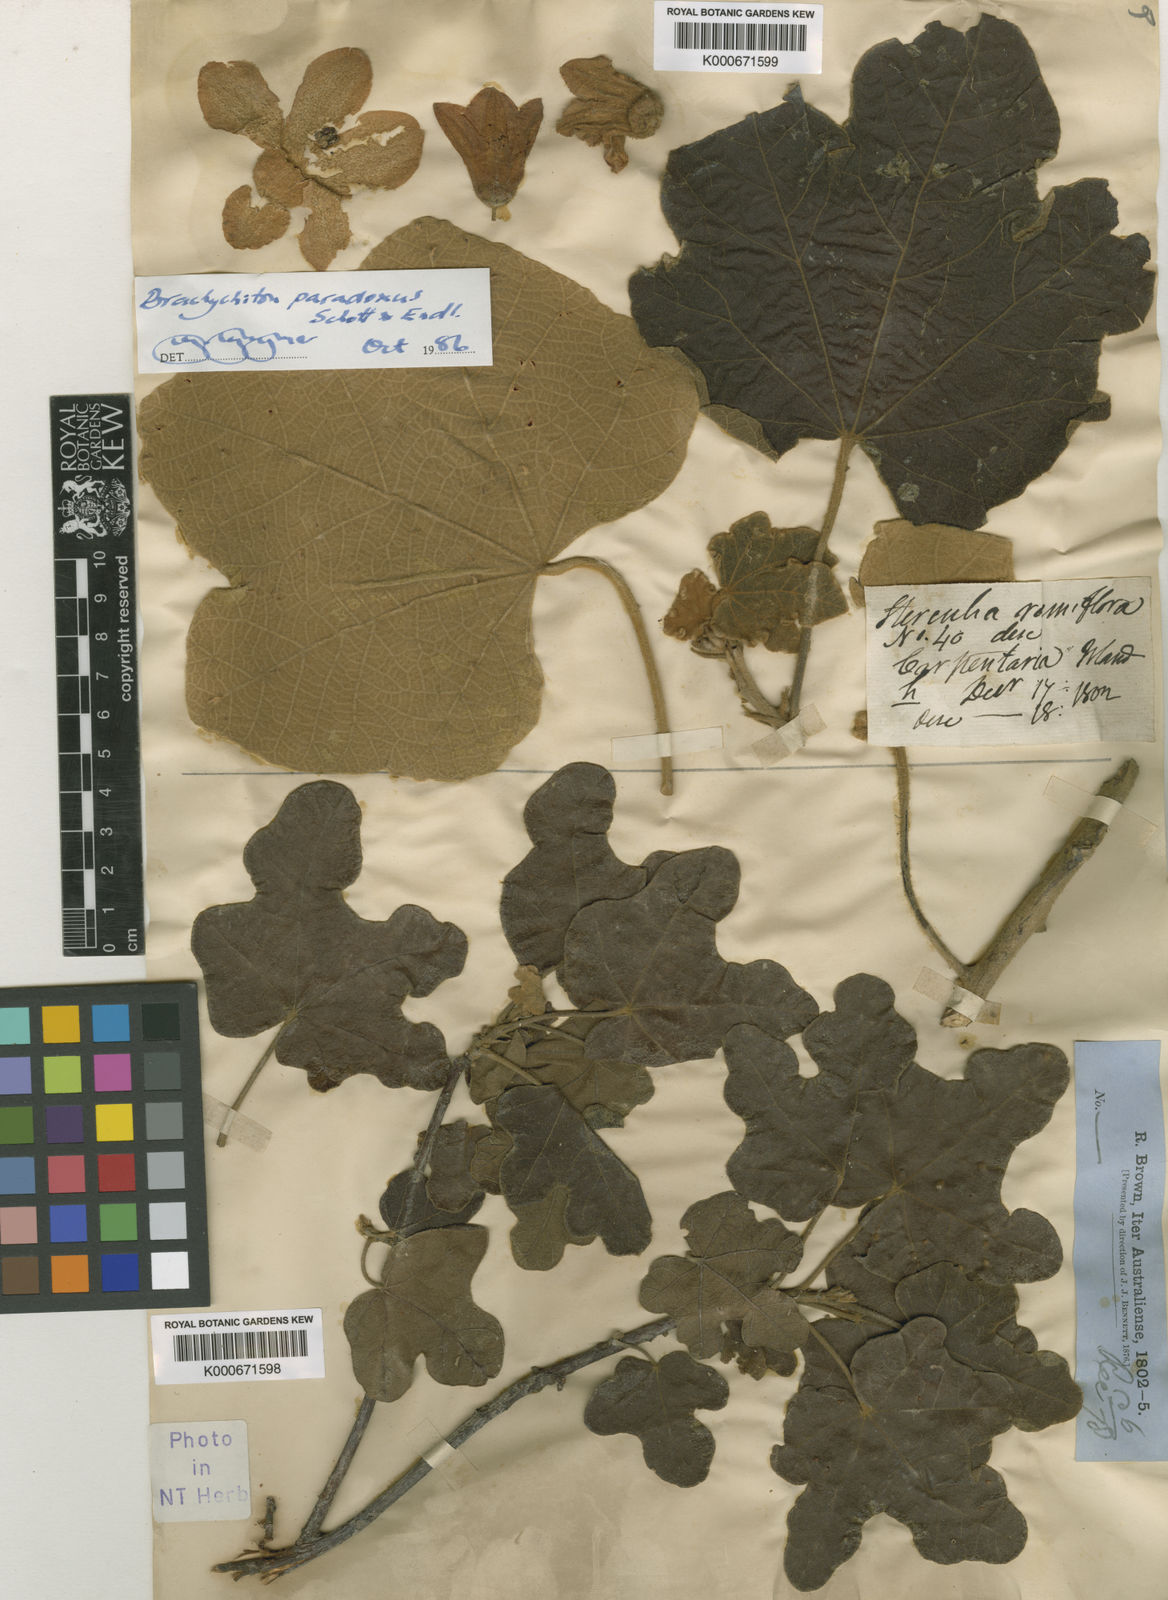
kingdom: Plantae
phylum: Tracheophyta
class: Magnoliopsida
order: Malvales
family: Malvaceae
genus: Brachychiton
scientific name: Brachychiton paradoxus
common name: Red-flower kurrajong
